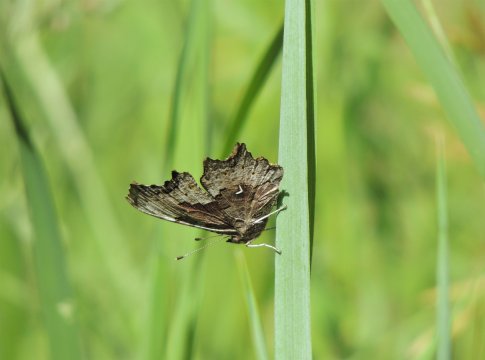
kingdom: Animalia
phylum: Arthropoda
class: Insecta
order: Lepidoptera
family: Nymphalidae
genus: Polygonia
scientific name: Polygonia gracilis
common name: Hoary Comma
